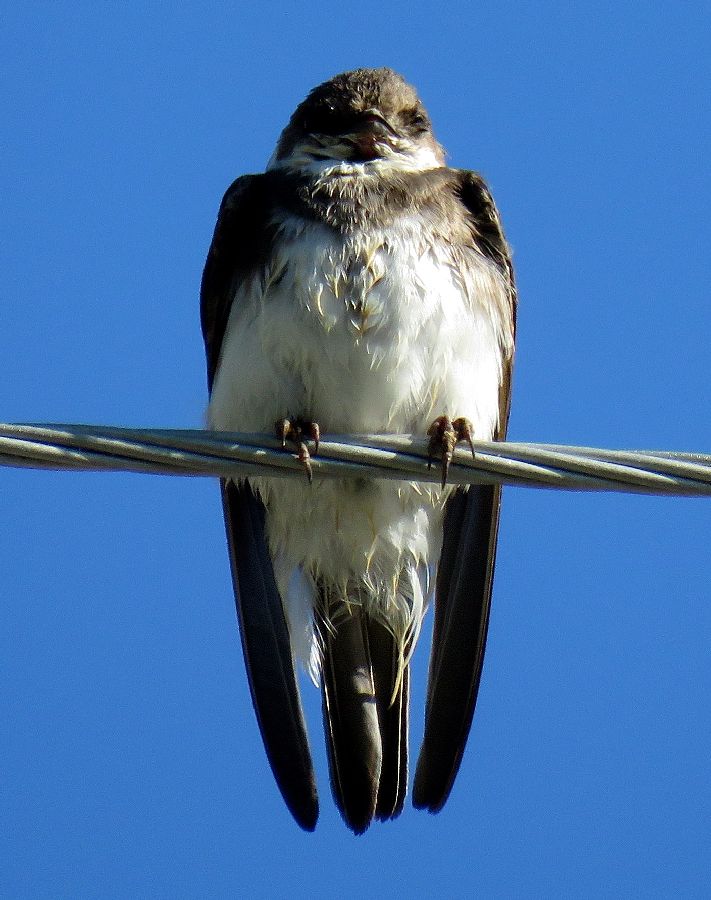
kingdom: Animalia
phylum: Chordata
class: Aves
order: Passeriformes
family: Hirundinidae
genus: Riparia
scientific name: Riparia riparia
